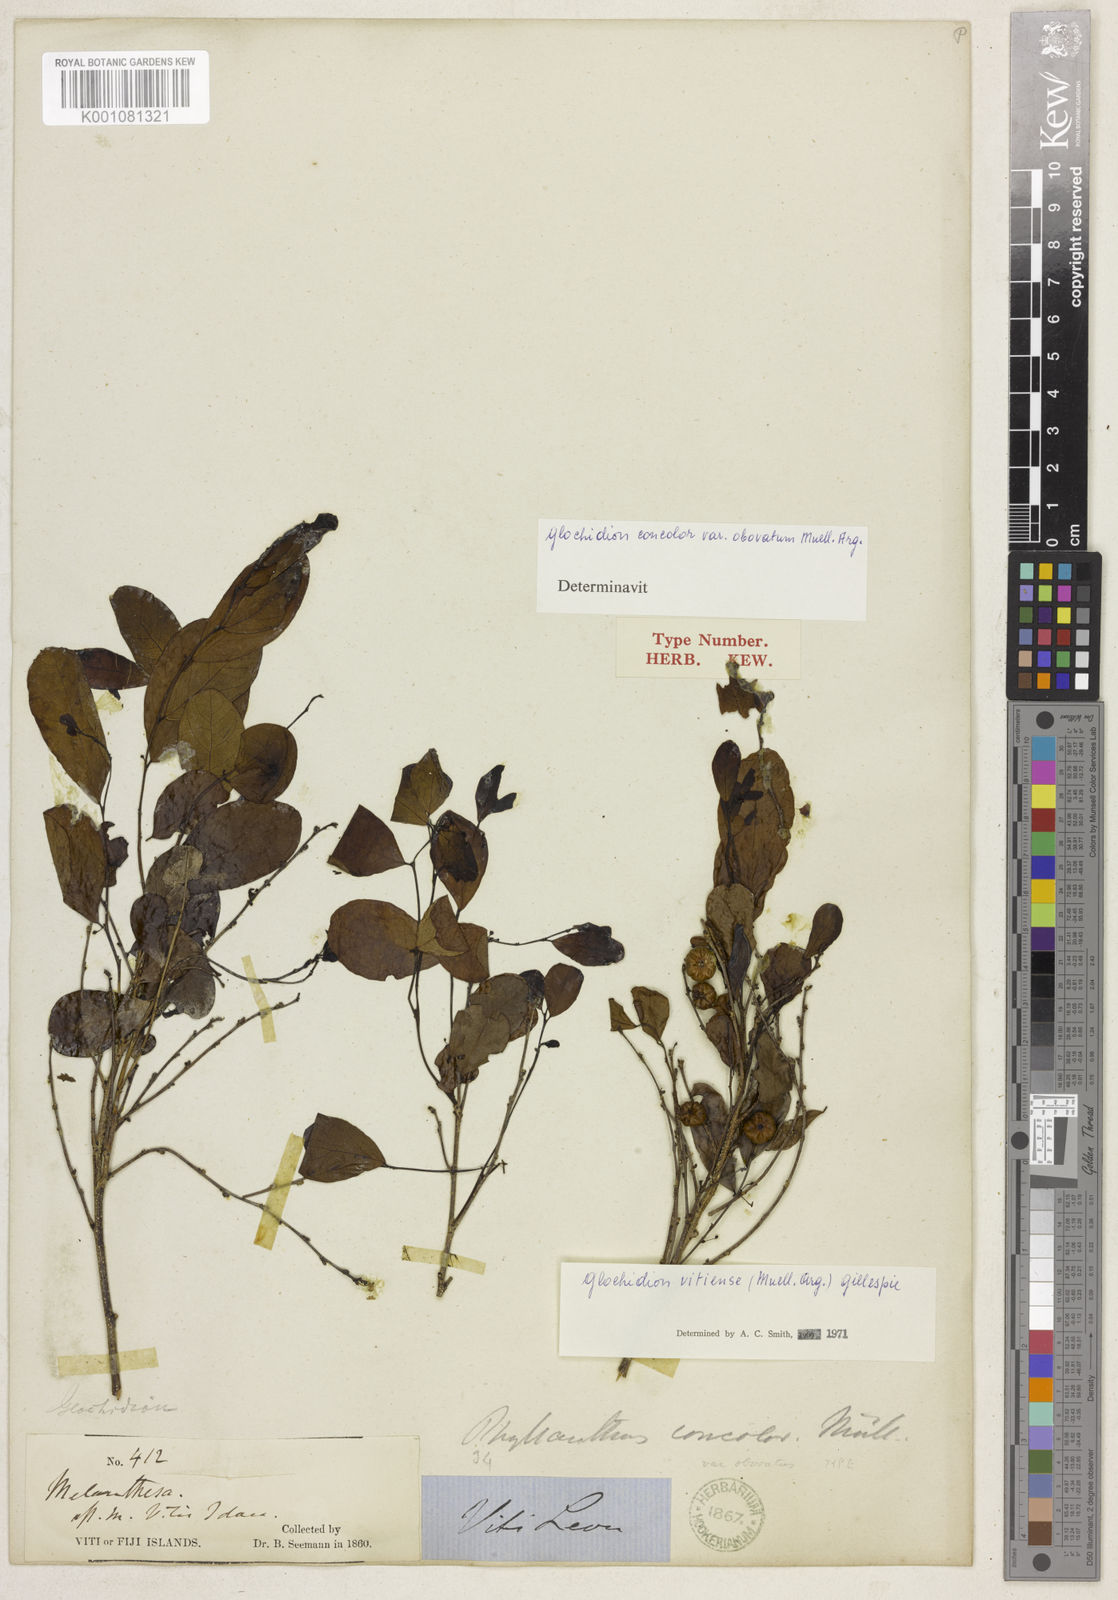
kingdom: Plantae
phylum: Tracheophyta
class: Magnoliopsida
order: Malpighiales
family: Phyllanthaceae
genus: Glochidion
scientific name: Glochidion
